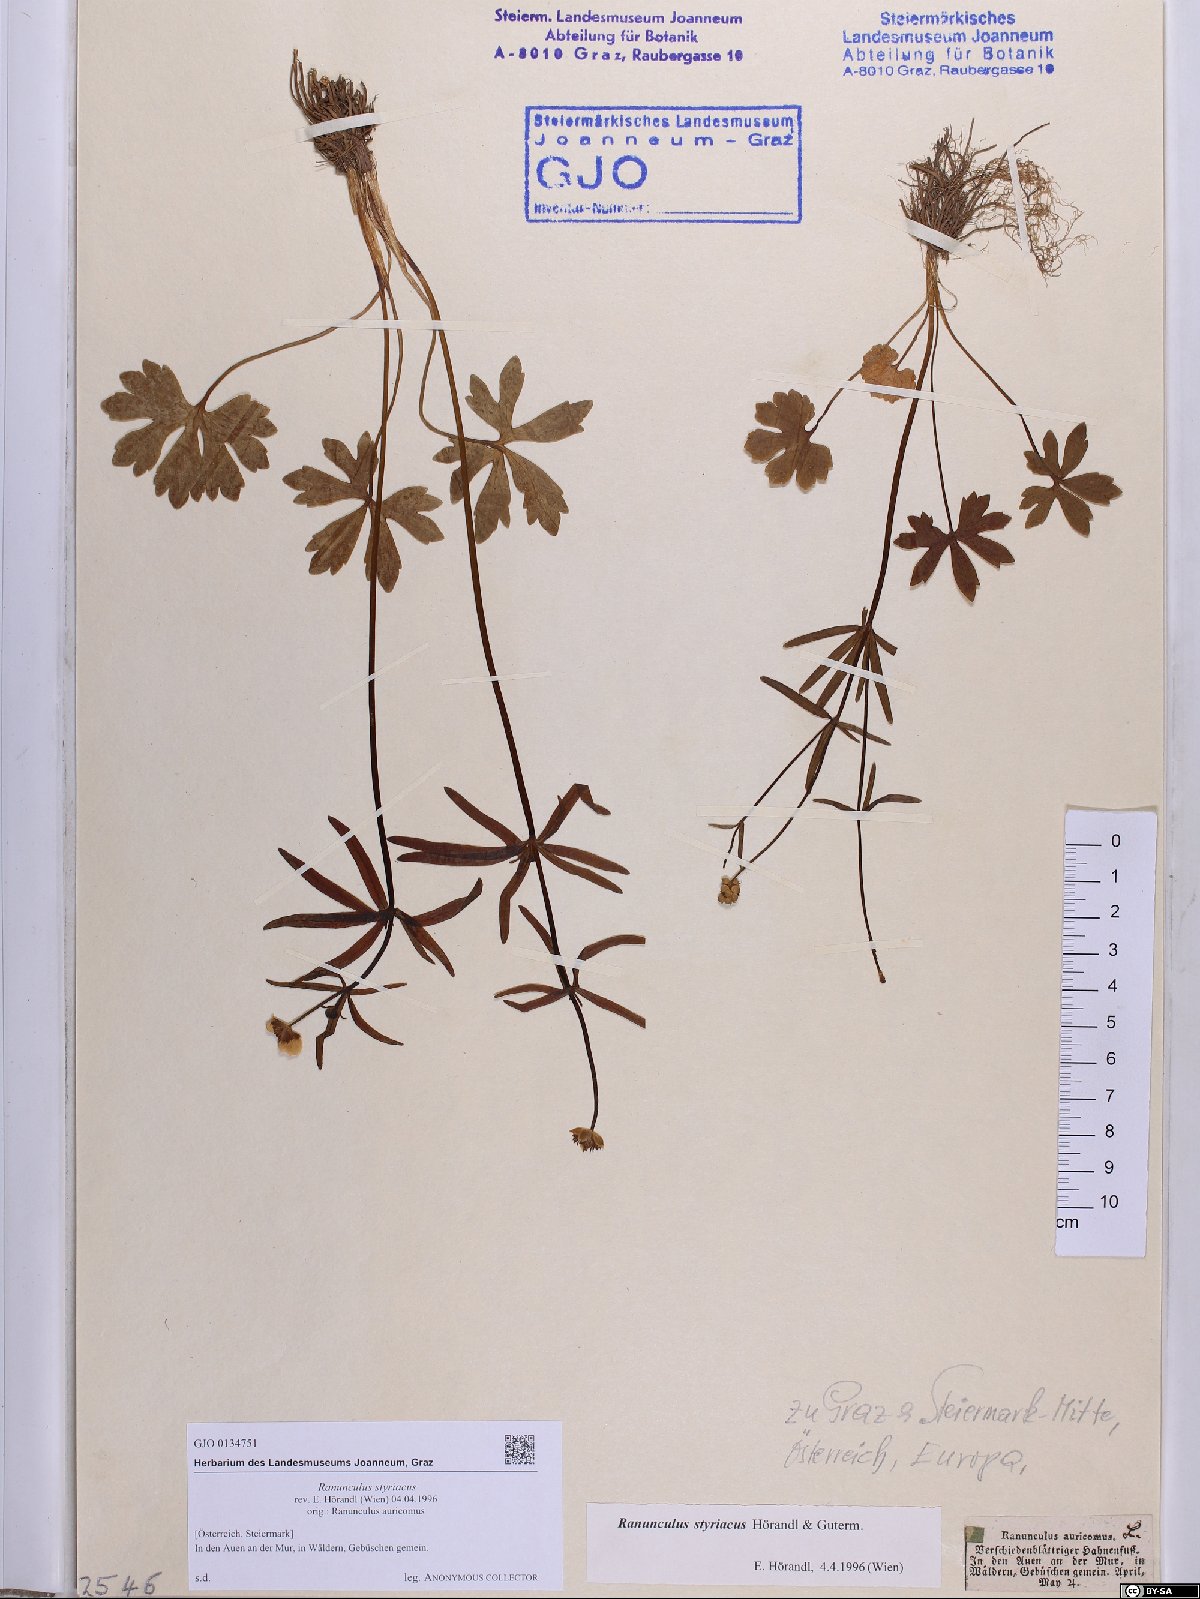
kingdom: Plantae
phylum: Tracheophyta
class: Magnoliopsida
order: Ranunculales
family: Ranunculaceae
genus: Ranunculus
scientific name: Ranunculus styriacus
